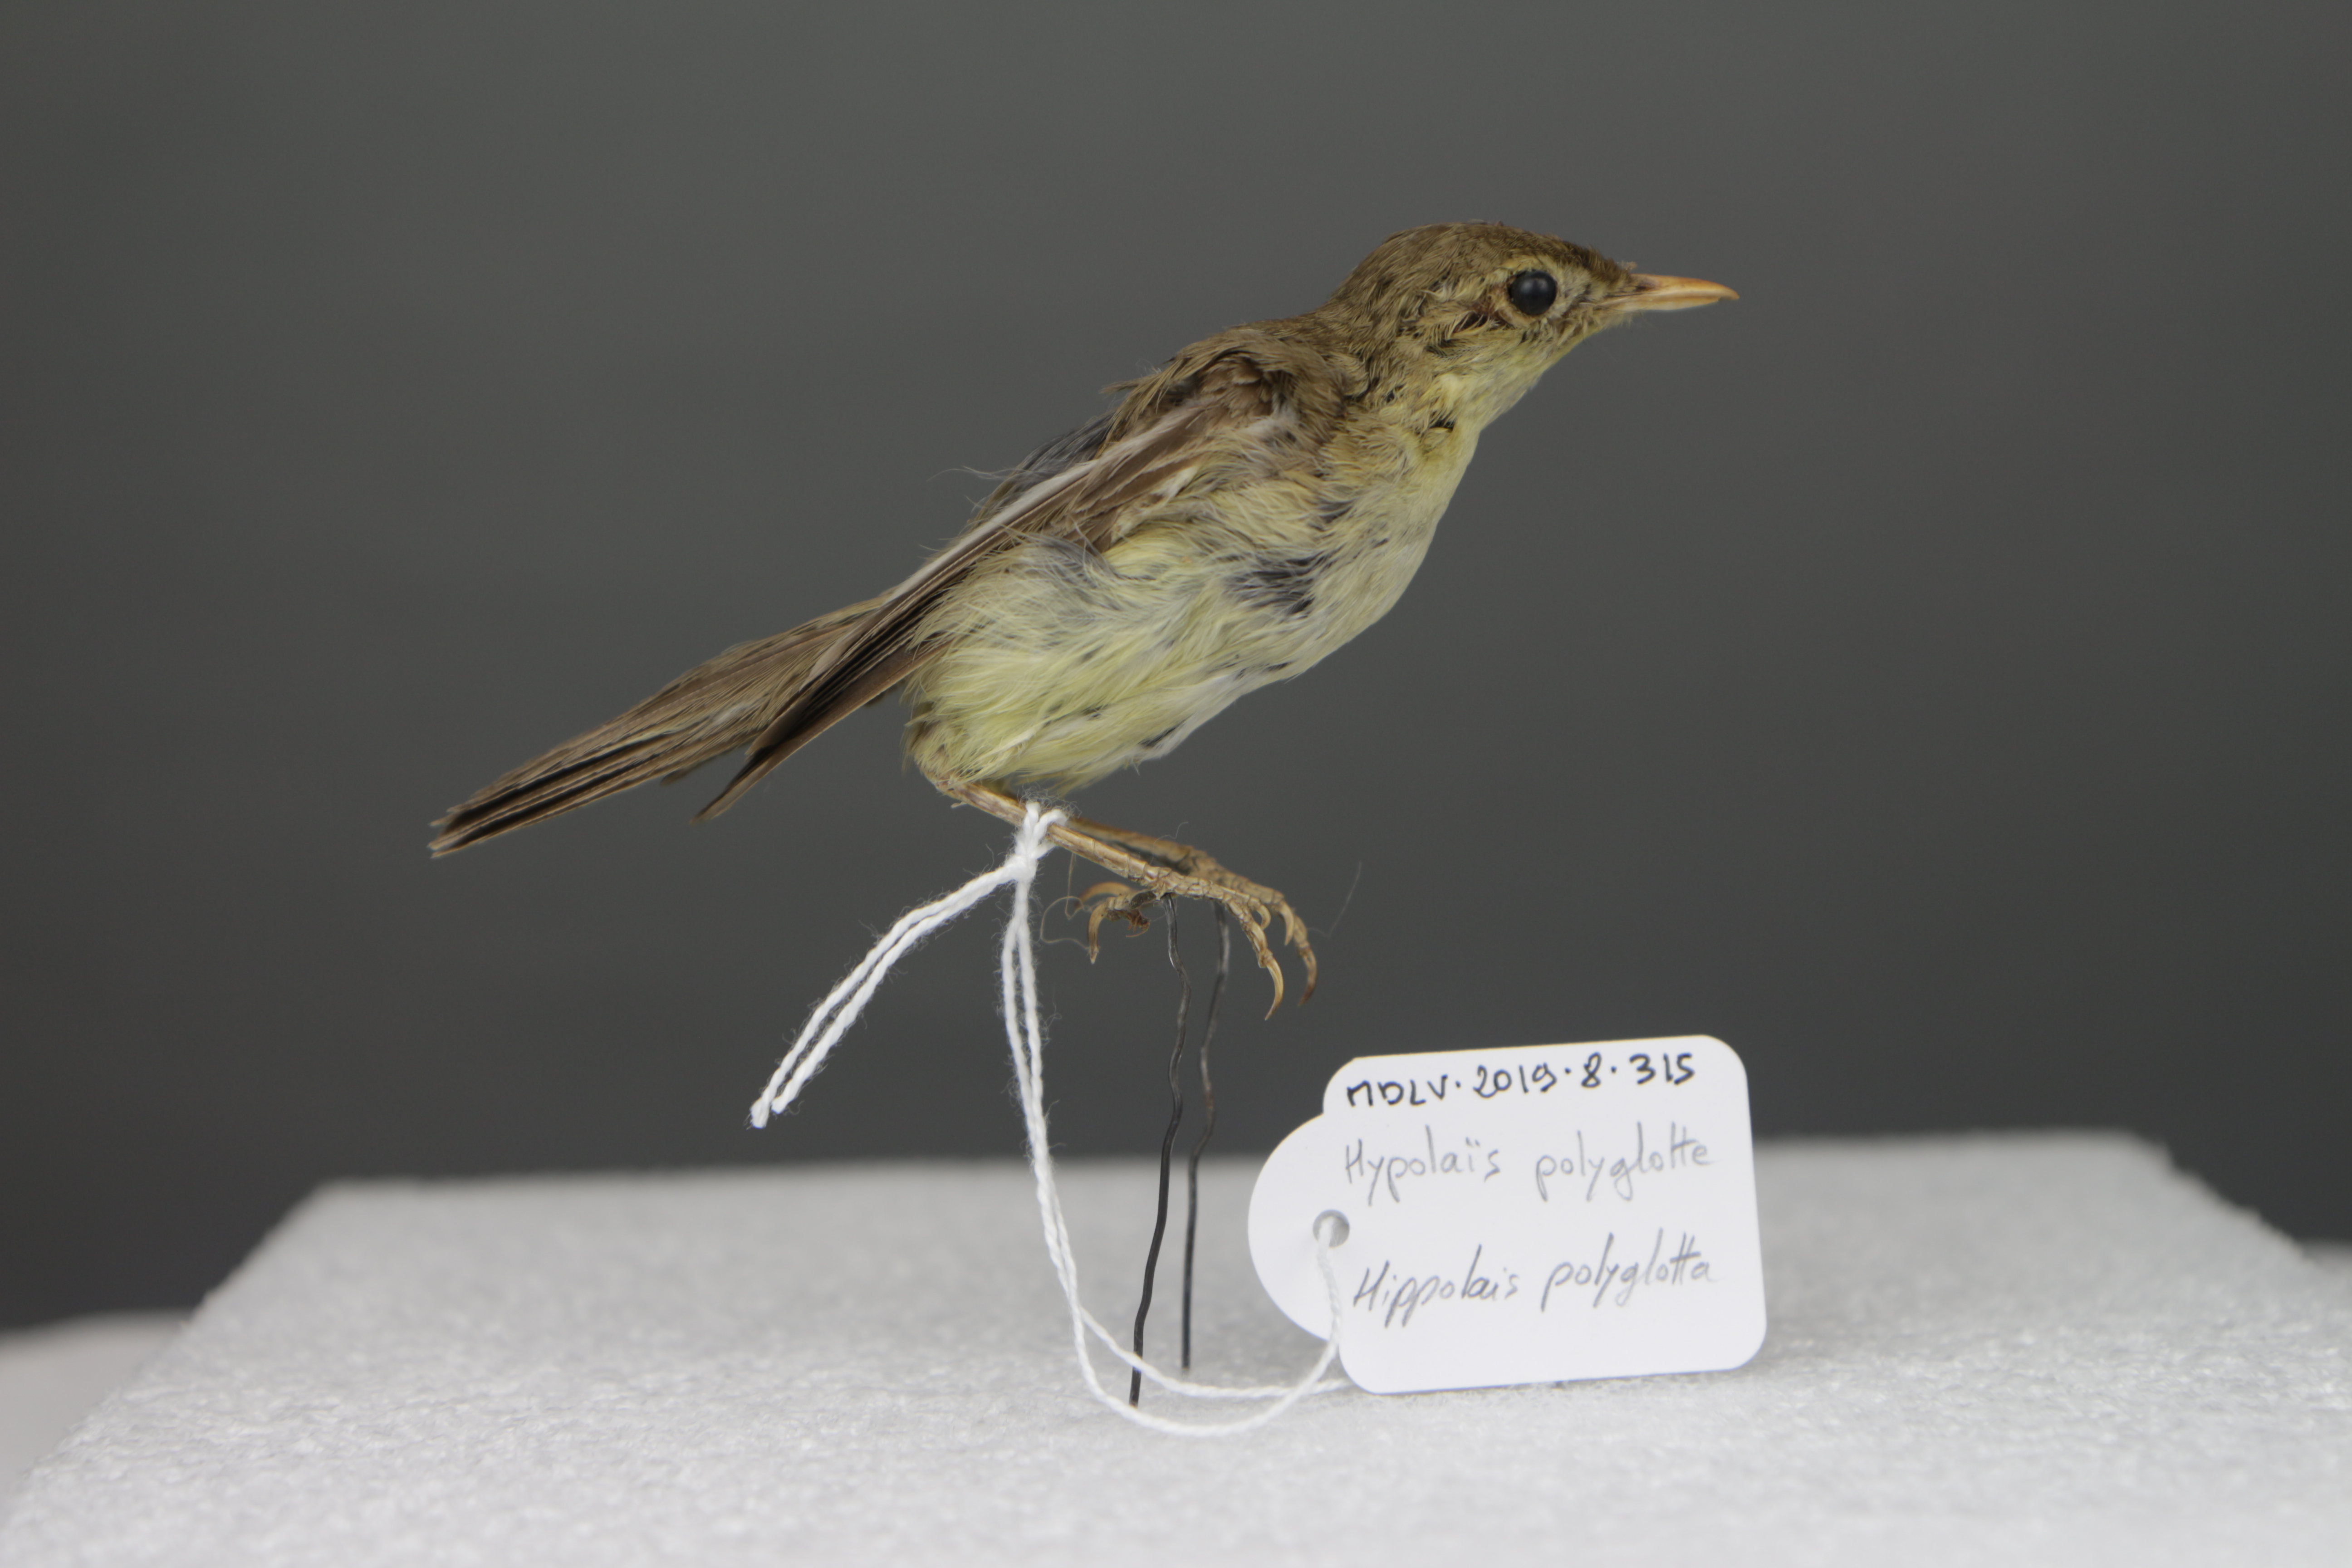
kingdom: Animalia
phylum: Chordata
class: Aves
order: Passeriformes
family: Acrocephalidae
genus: Hippolais
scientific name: Hippolais polyglotta
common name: Melodious warbler
